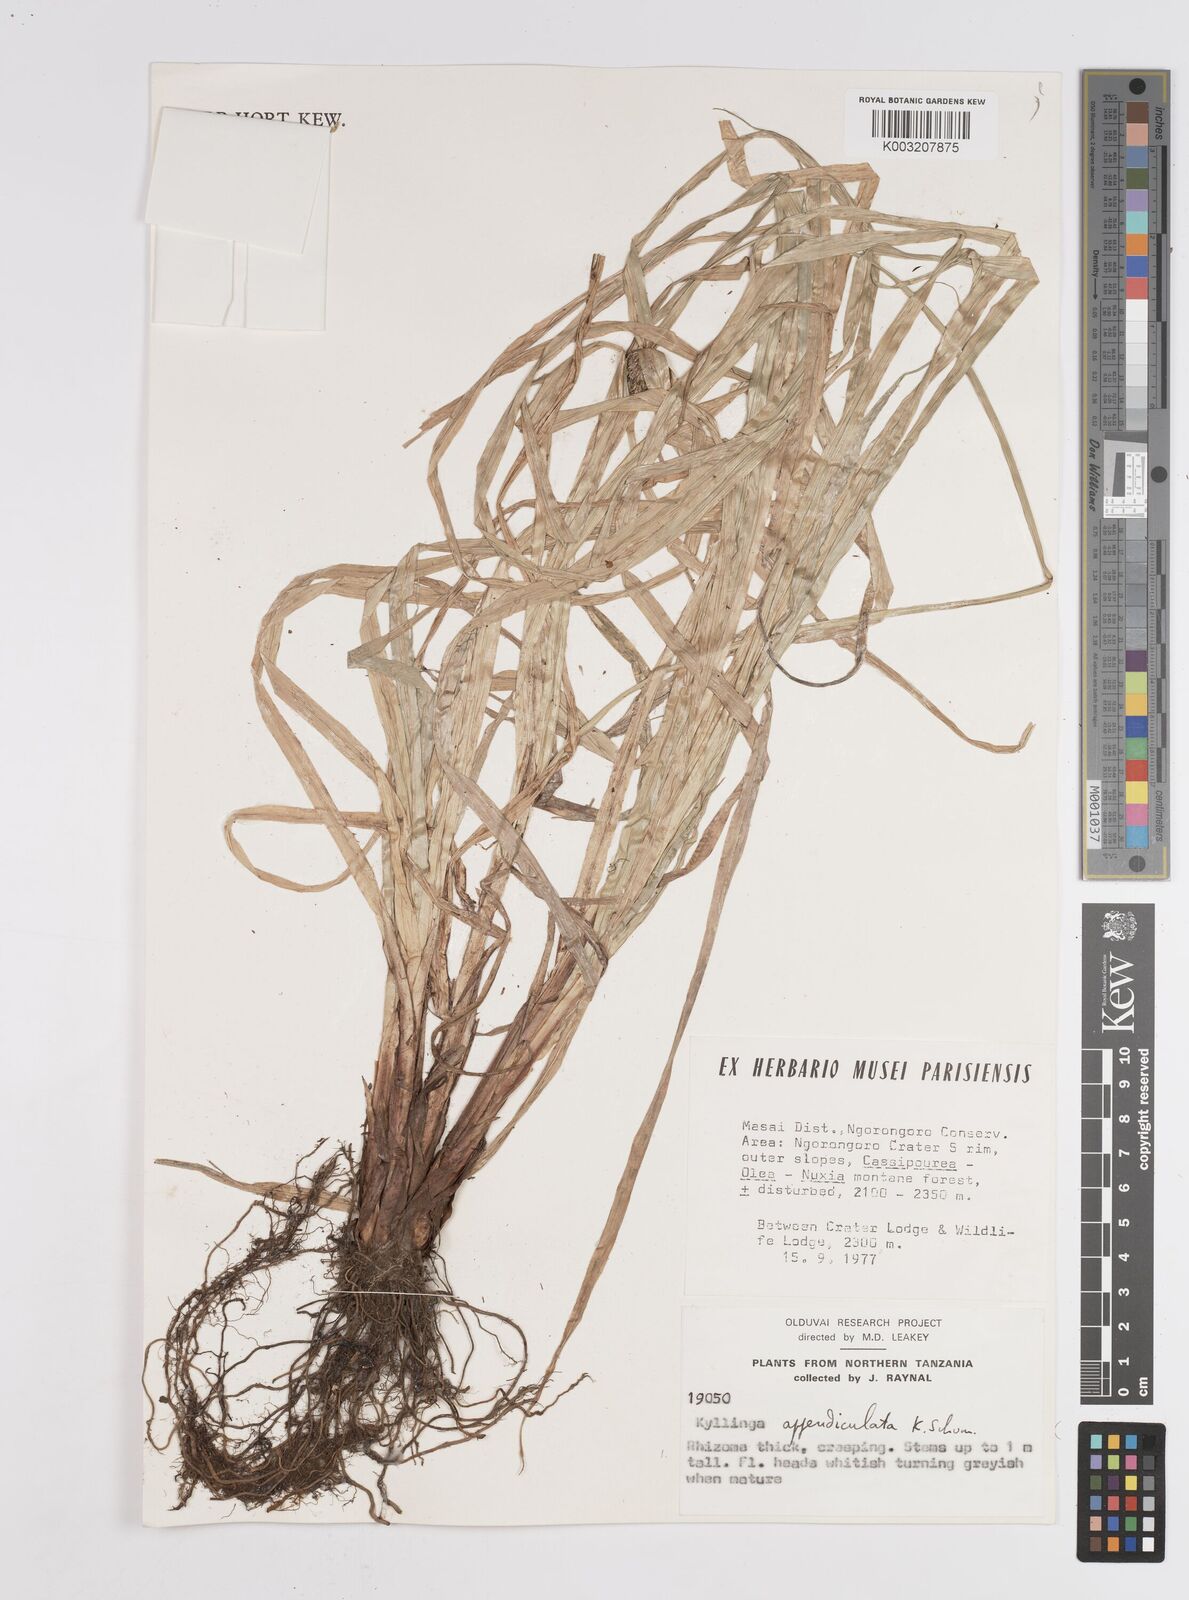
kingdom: Plantae
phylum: Tracheophyta
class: Liliopsida
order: Poales
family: Cyperaceae
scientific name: Cyperaceae
